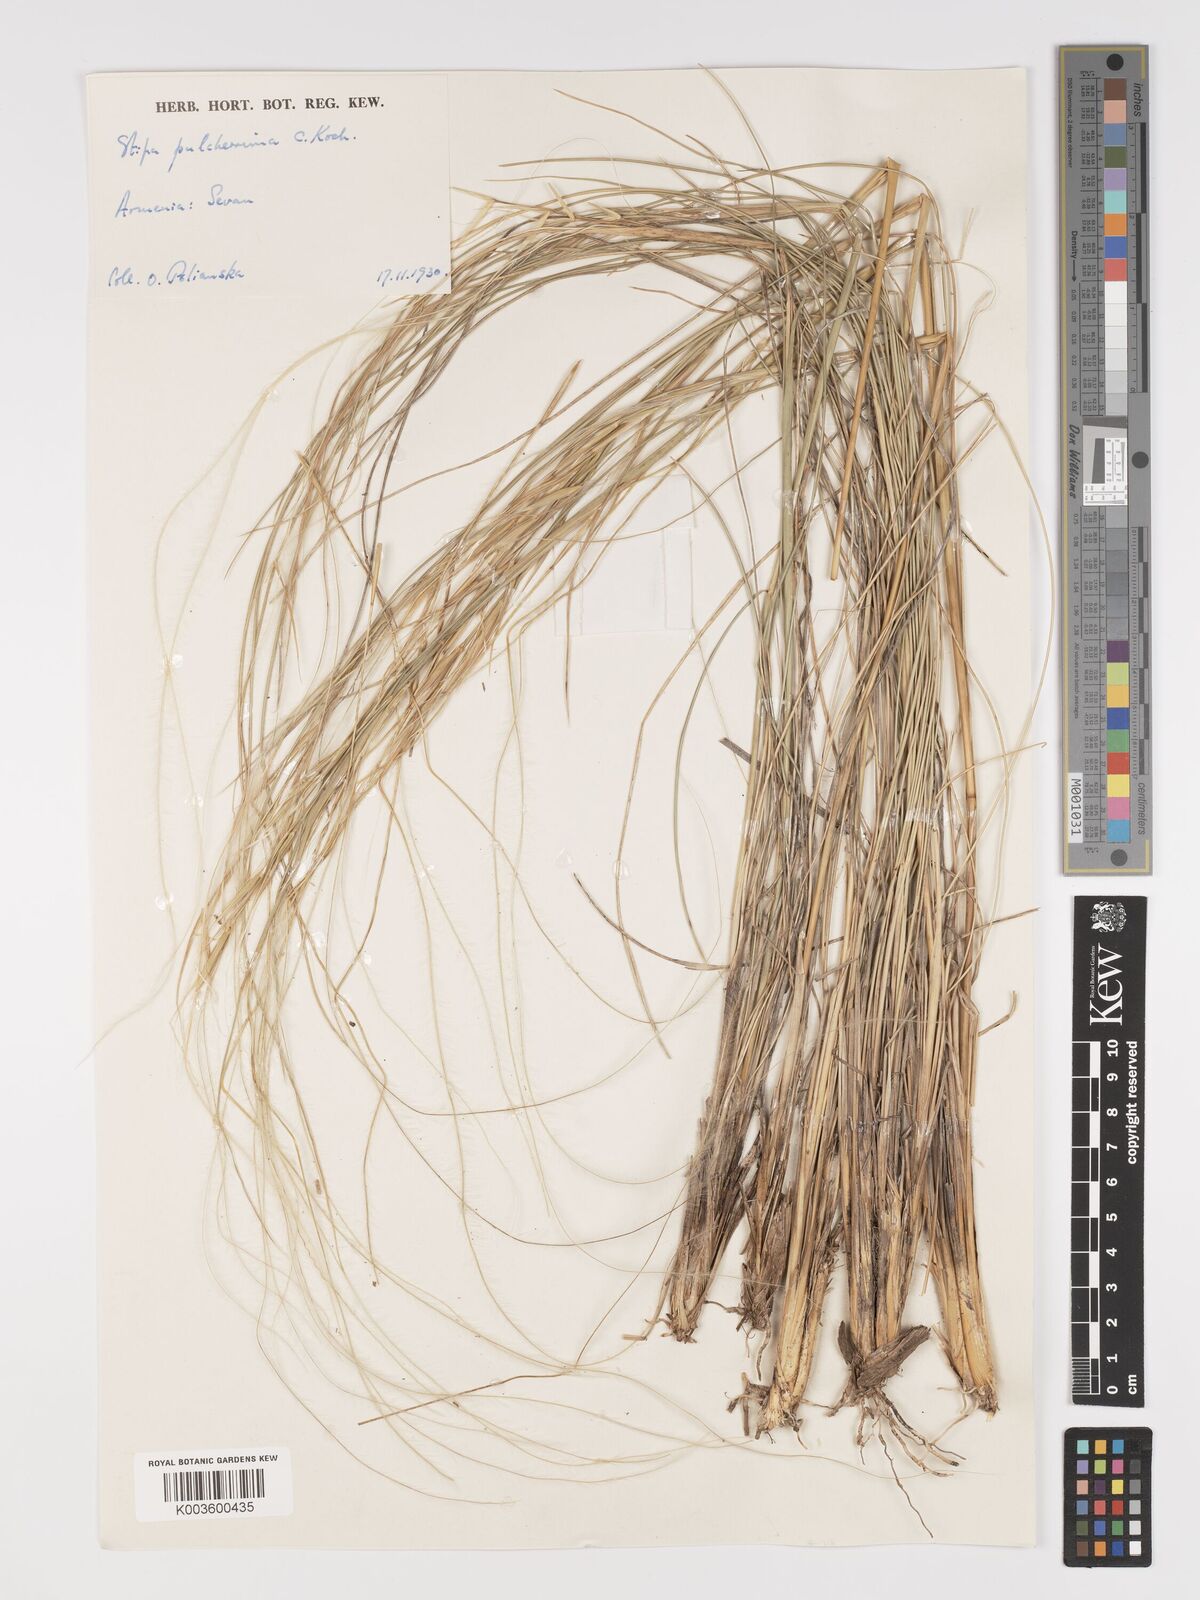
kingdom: Plantae
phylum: Tracheophyta
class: Liliopsida
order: Poales
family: Poaceae
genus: Stipa
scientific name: Stipa pulcherrima
